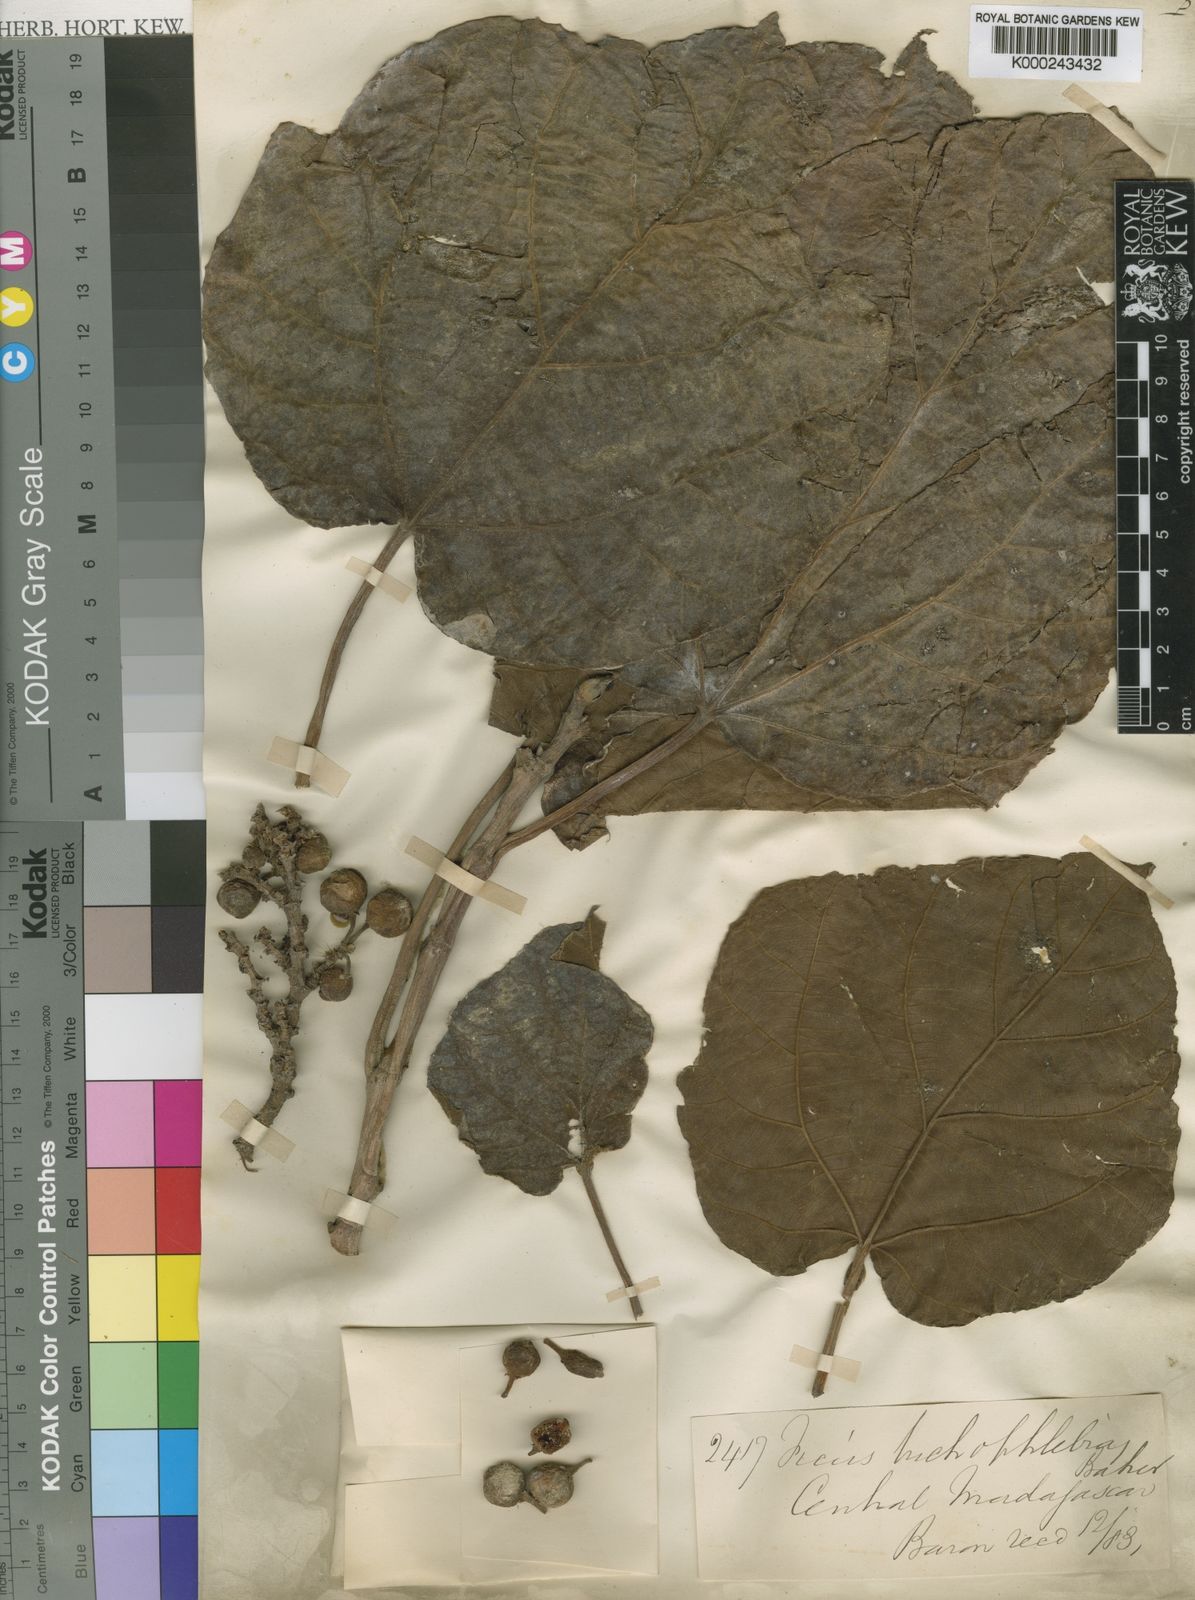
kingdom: Plantae
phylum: Tracheophyta
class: Magnoliopsida
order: Rosales
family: Moraceae
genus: Ficus
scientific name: Ficus
